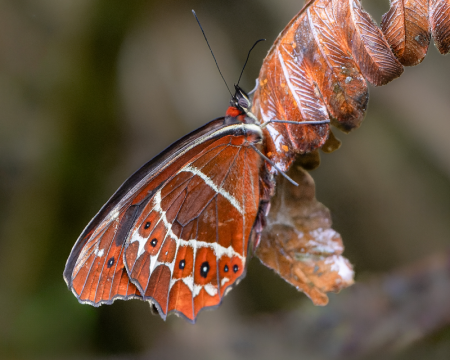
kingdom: Animalia
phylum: Arthropoda
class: Insecta
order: Lepidoptera
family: Nymphalidae
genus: Oxeoschistus
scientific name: Oxeoschistus simplex
